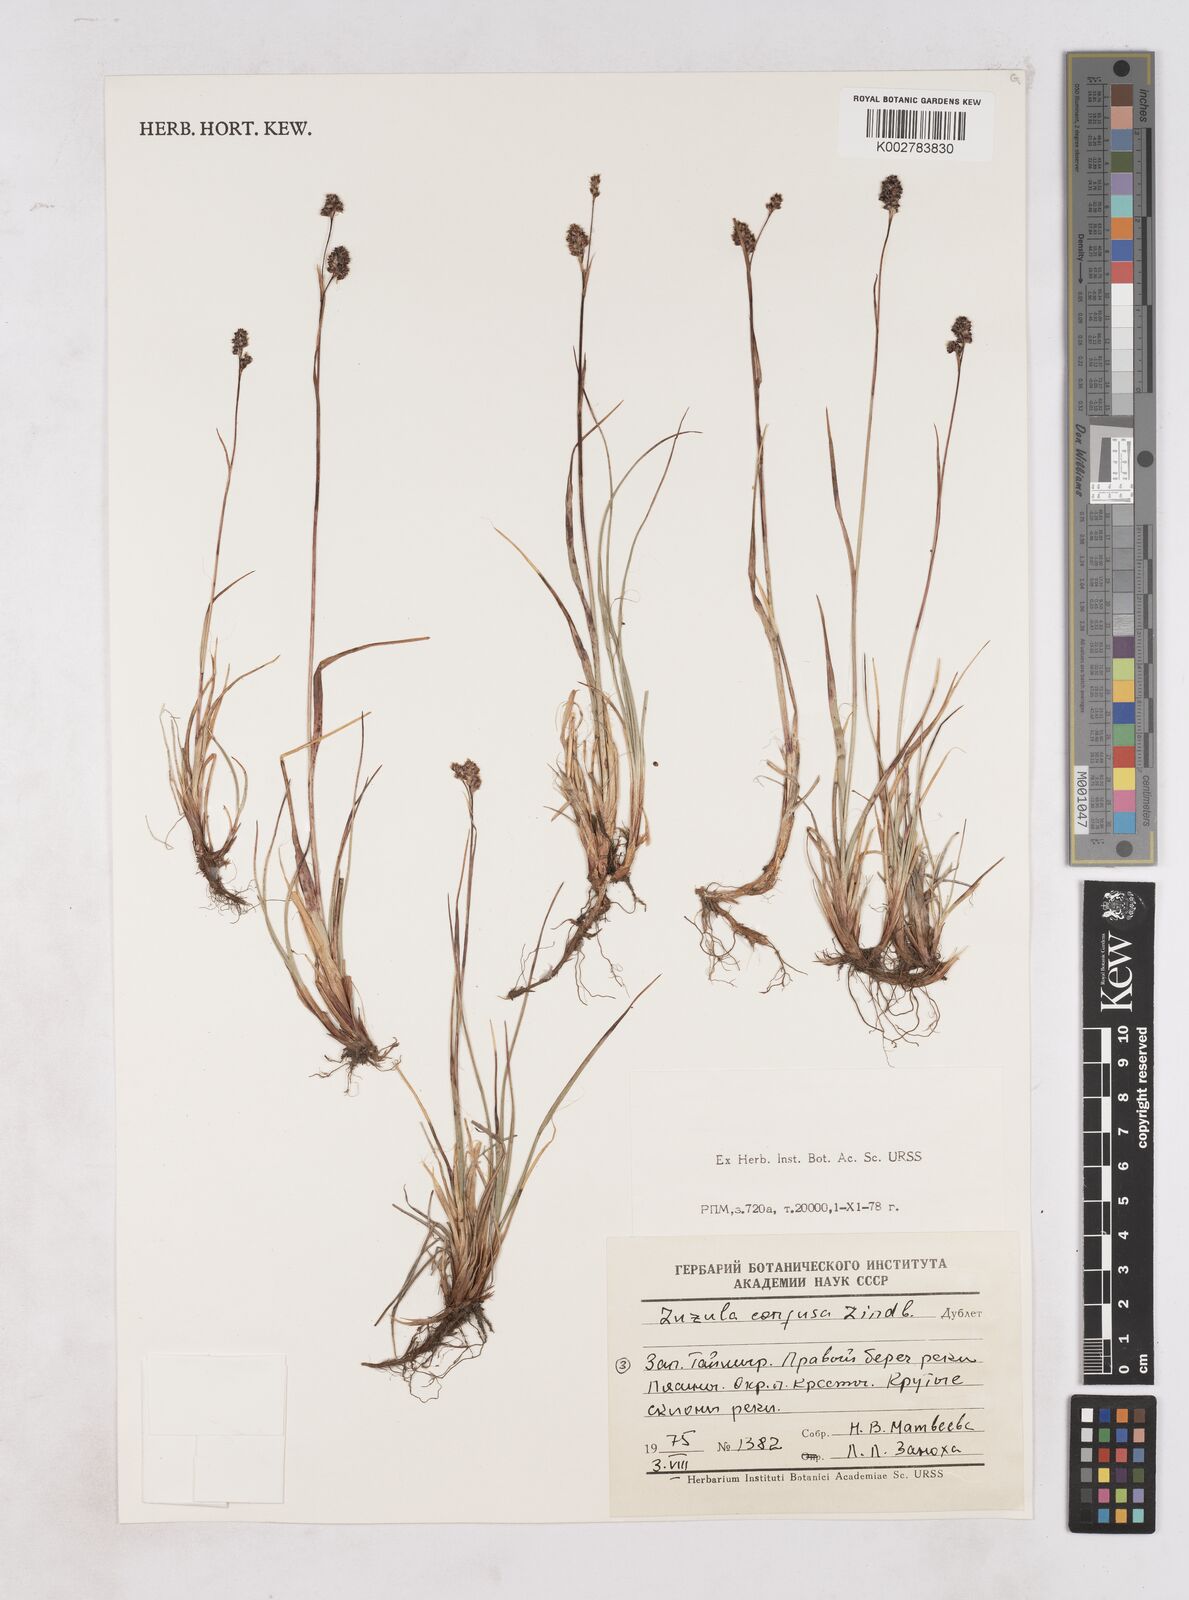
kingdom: Plantae
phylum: Tracheophyta
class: Liliopsida
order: Poales
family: Juncaceae
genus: Luzula
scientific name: Luzula confusa
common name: Northern wood rush
